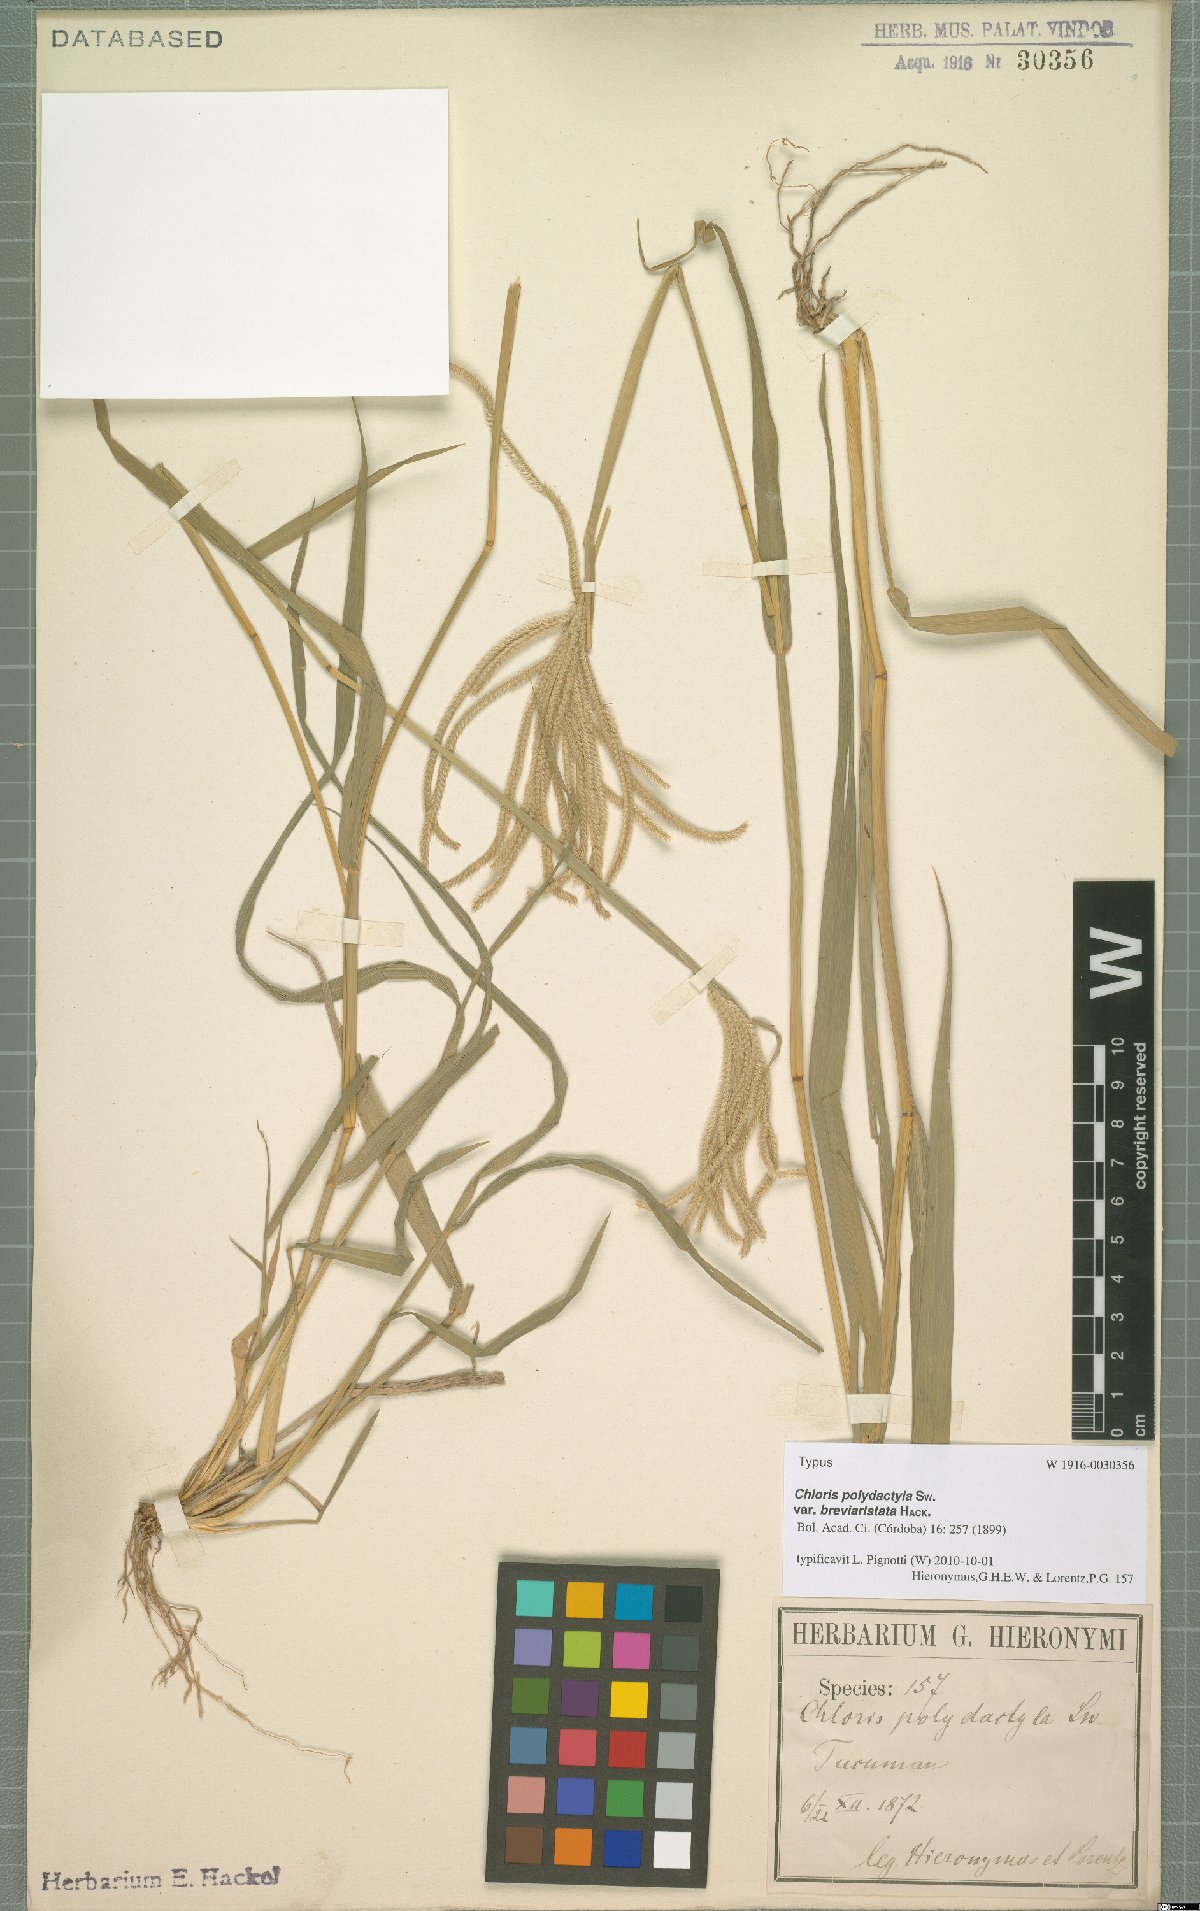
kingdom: Plantae
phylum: Tracheophyta
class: Liliopsida
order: Poales
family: Poaceae
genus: Stapfochloa
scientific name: Stapfochloa elata
